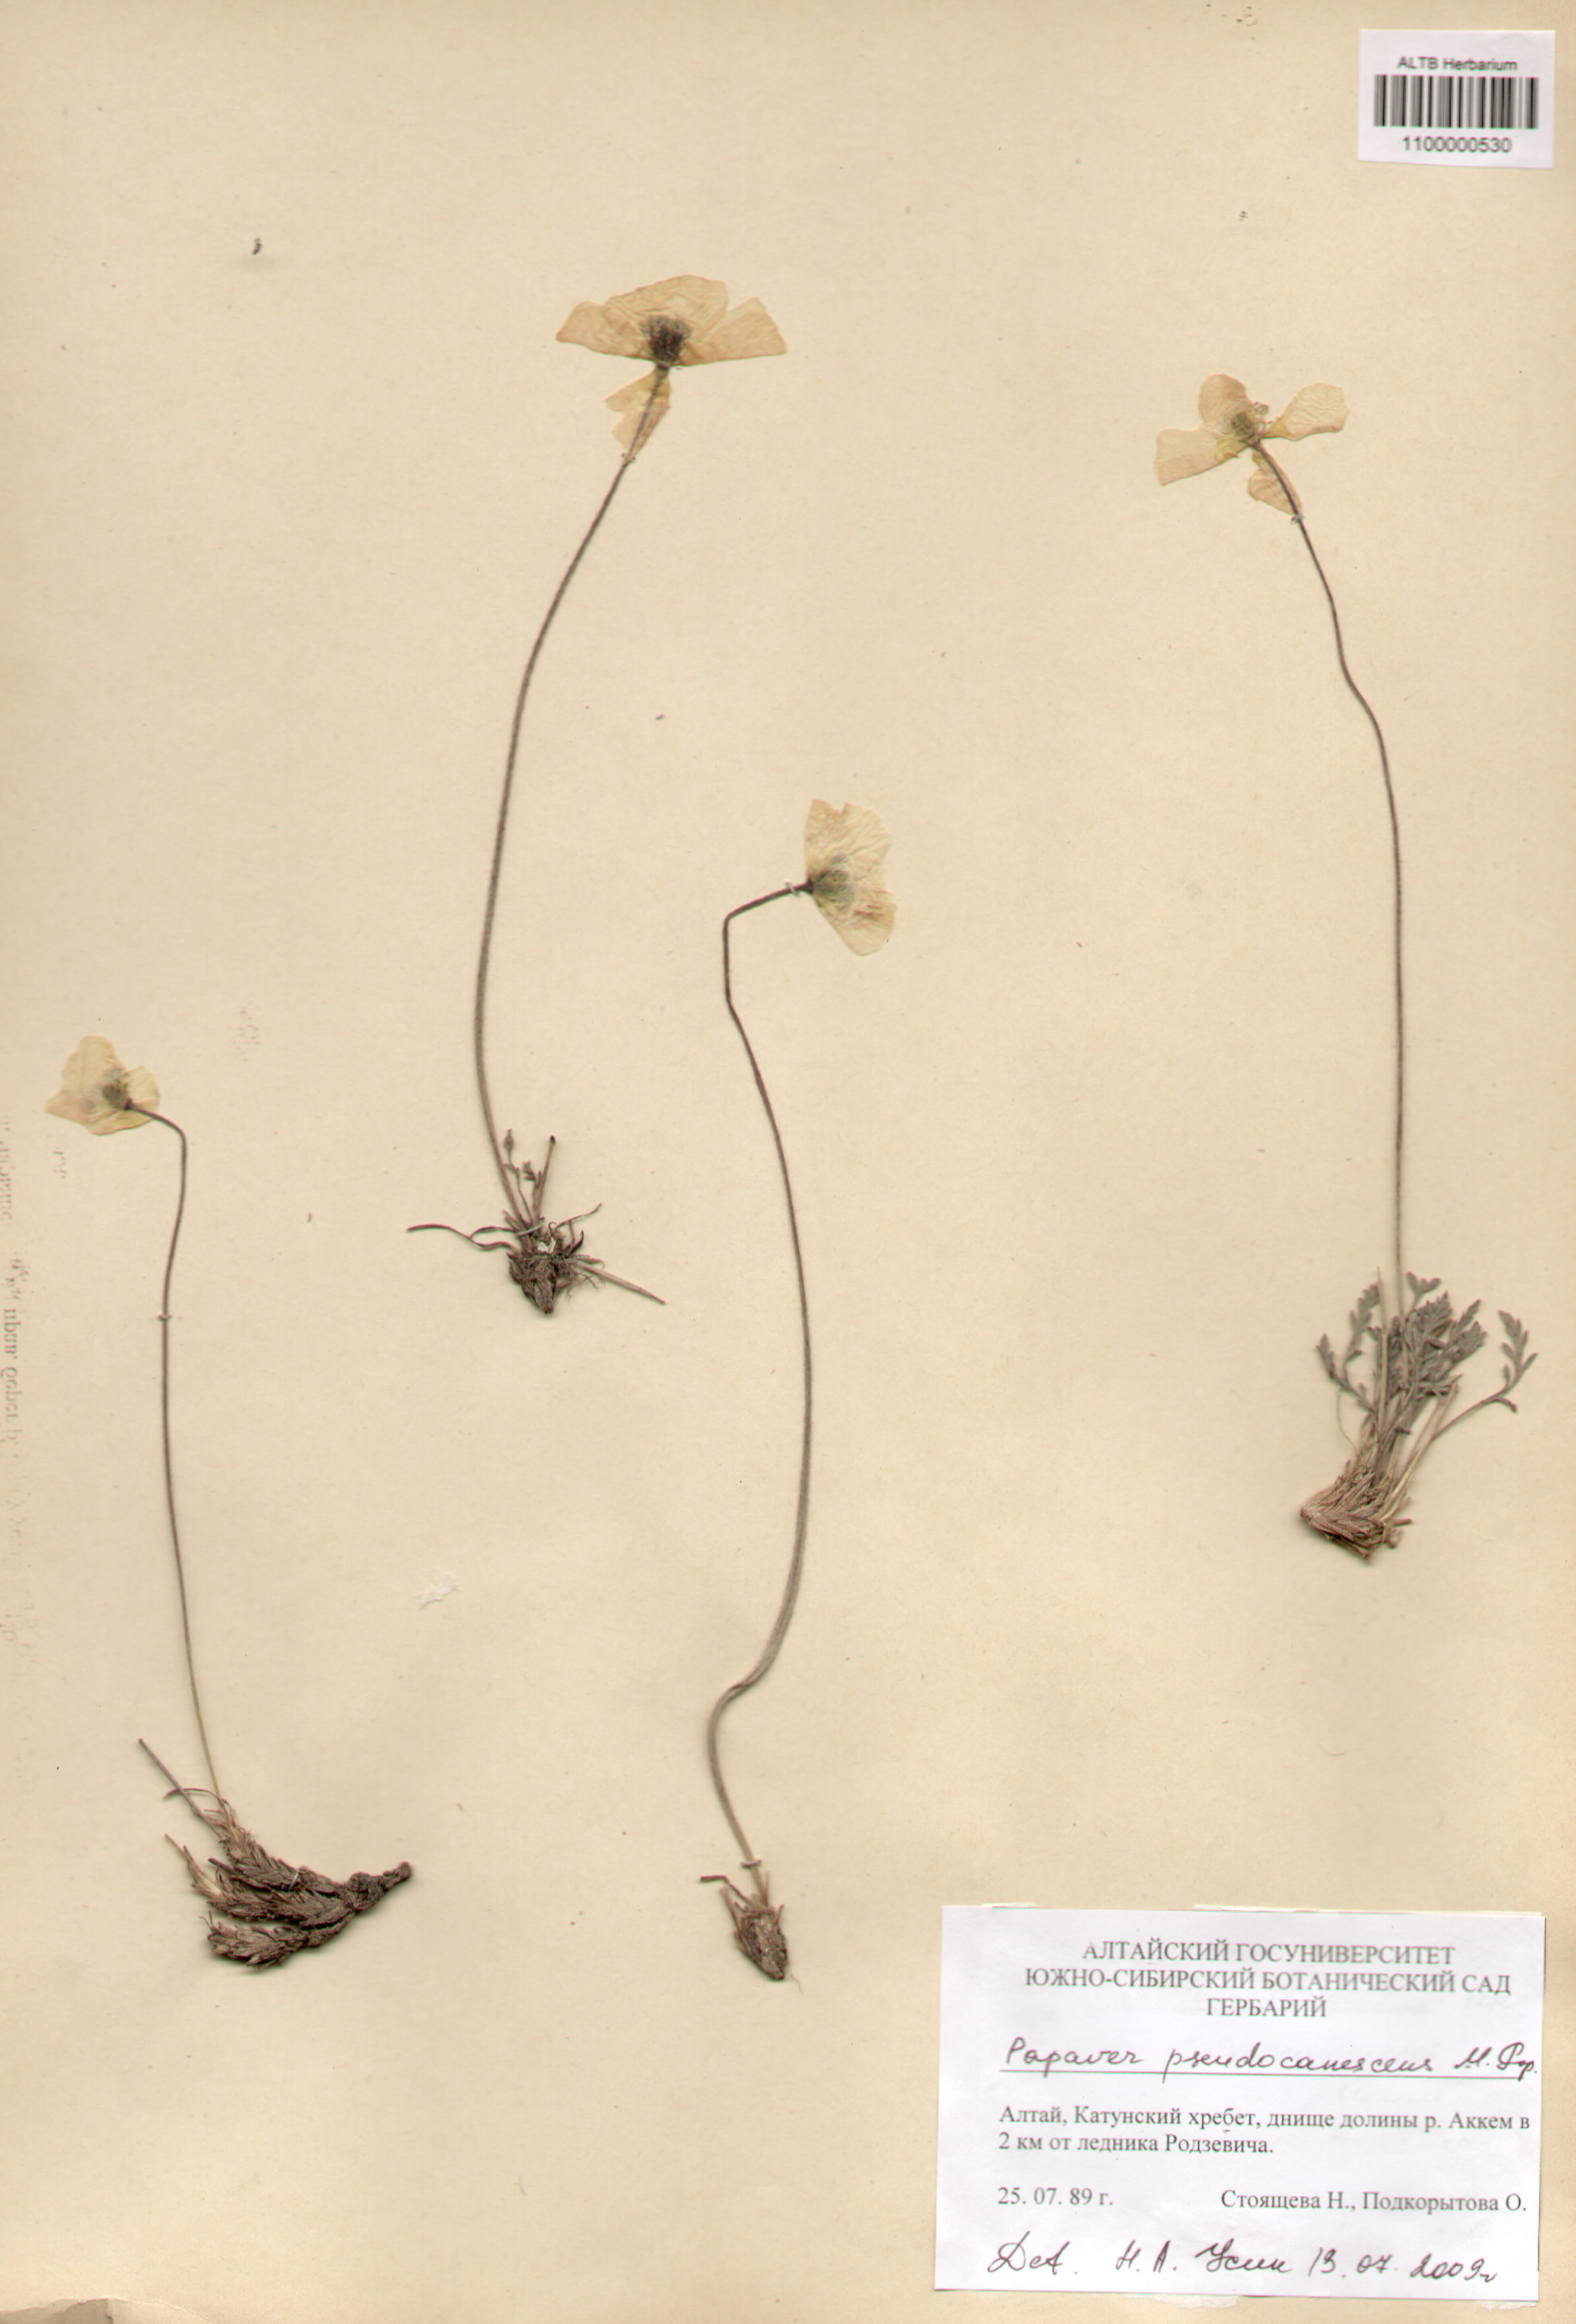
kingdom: Plantae
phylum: Tracheophyta
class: Magnoliopsida
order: Ranunculales
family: Papaveraceae
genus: Papaver
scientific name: Papaver canescens
